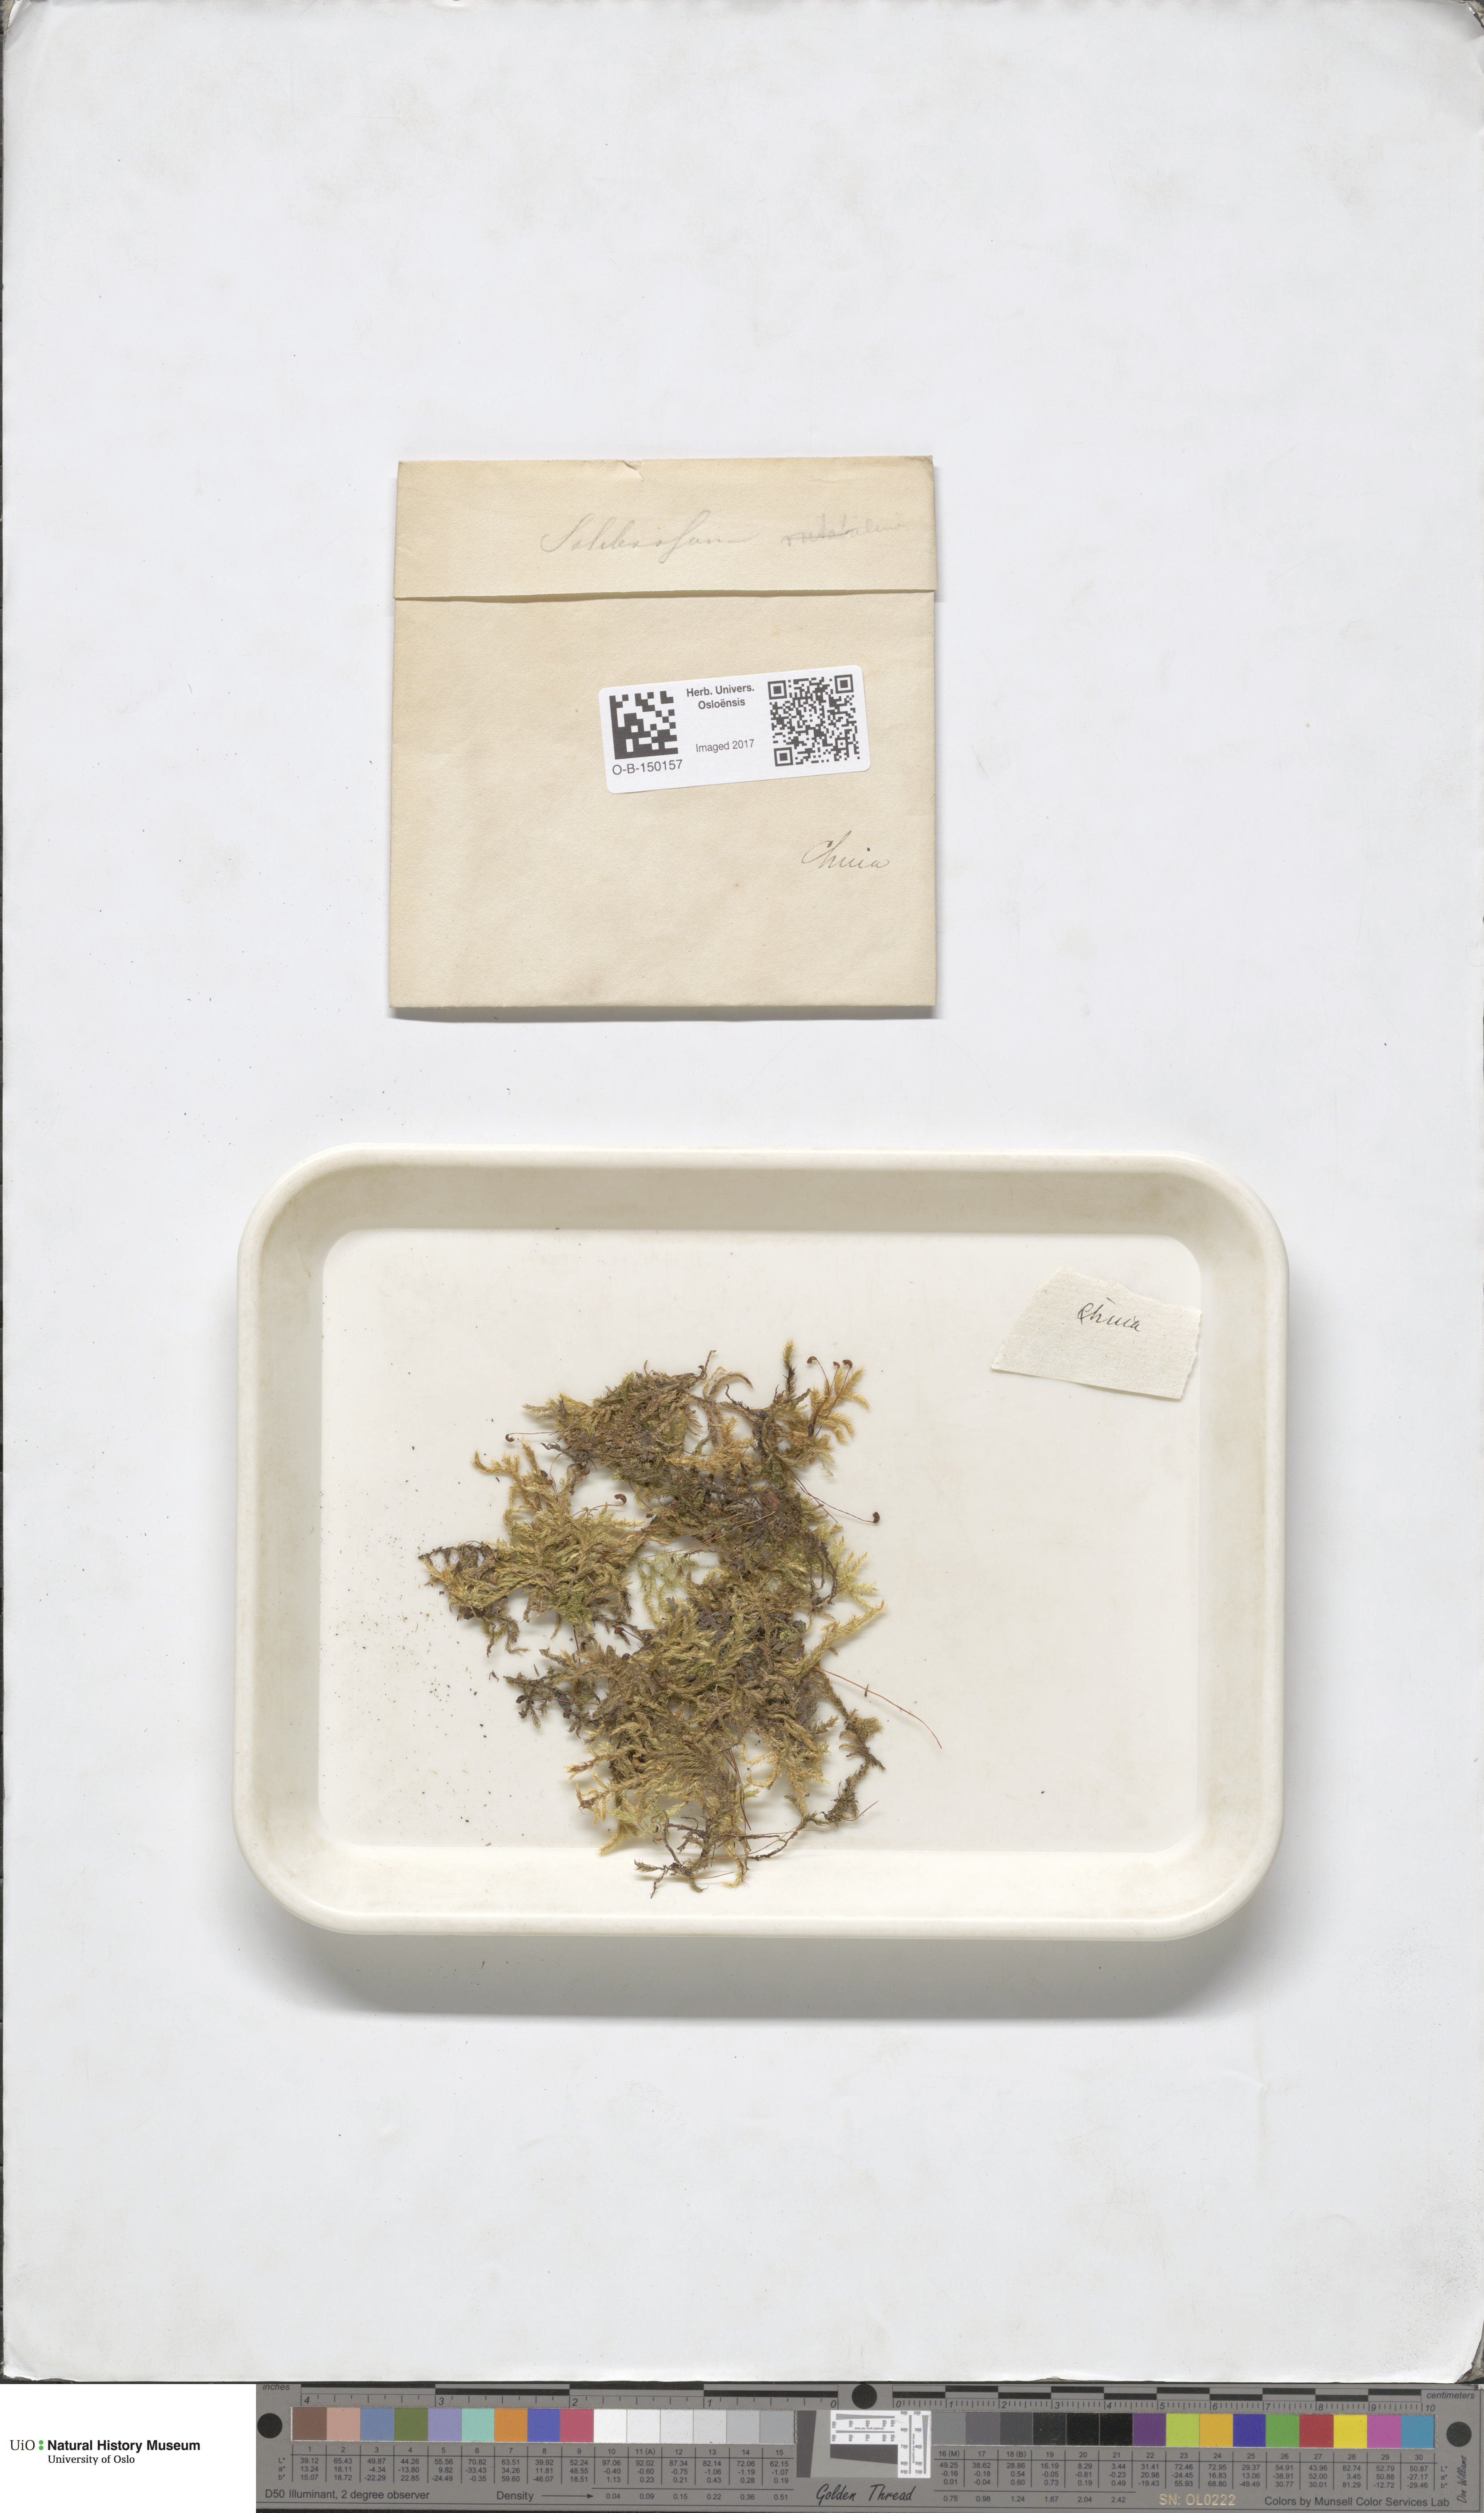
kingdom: Plantae
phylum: Bryophyta
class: Bryopsida
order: Hypnales
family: Brachytheciaceae
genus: Brachythecium
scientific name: Brachythecium salebrosum
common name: Smooth-stalk feather-moss
